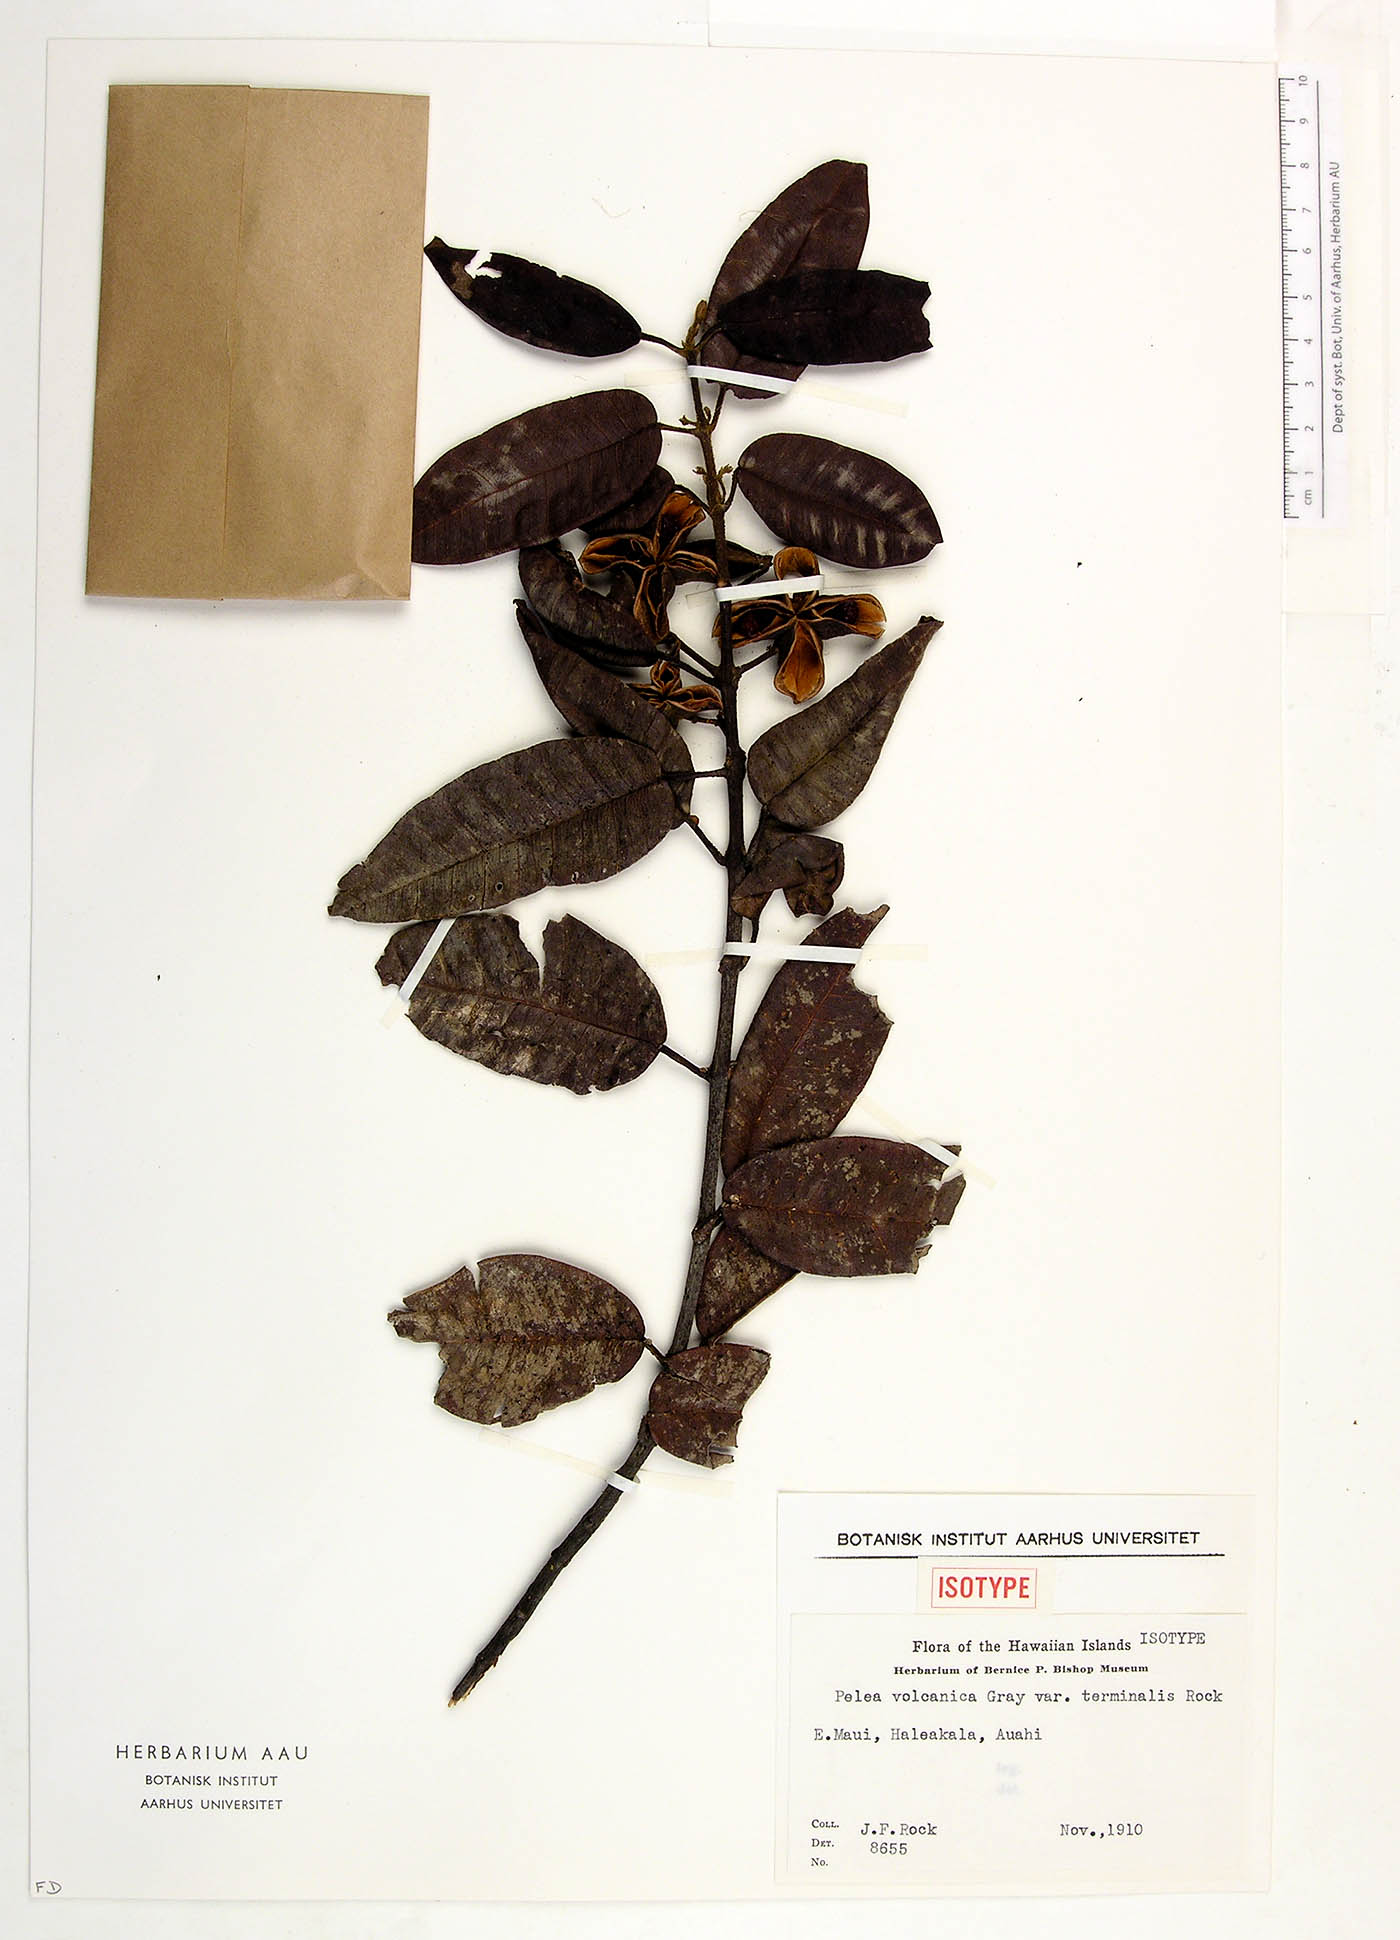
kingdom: Plantae
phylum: Tracheophyta
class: Magnoliopsida
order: Sapindales
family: Rutaceae
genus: Melicope
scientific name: Melicope volcanica
